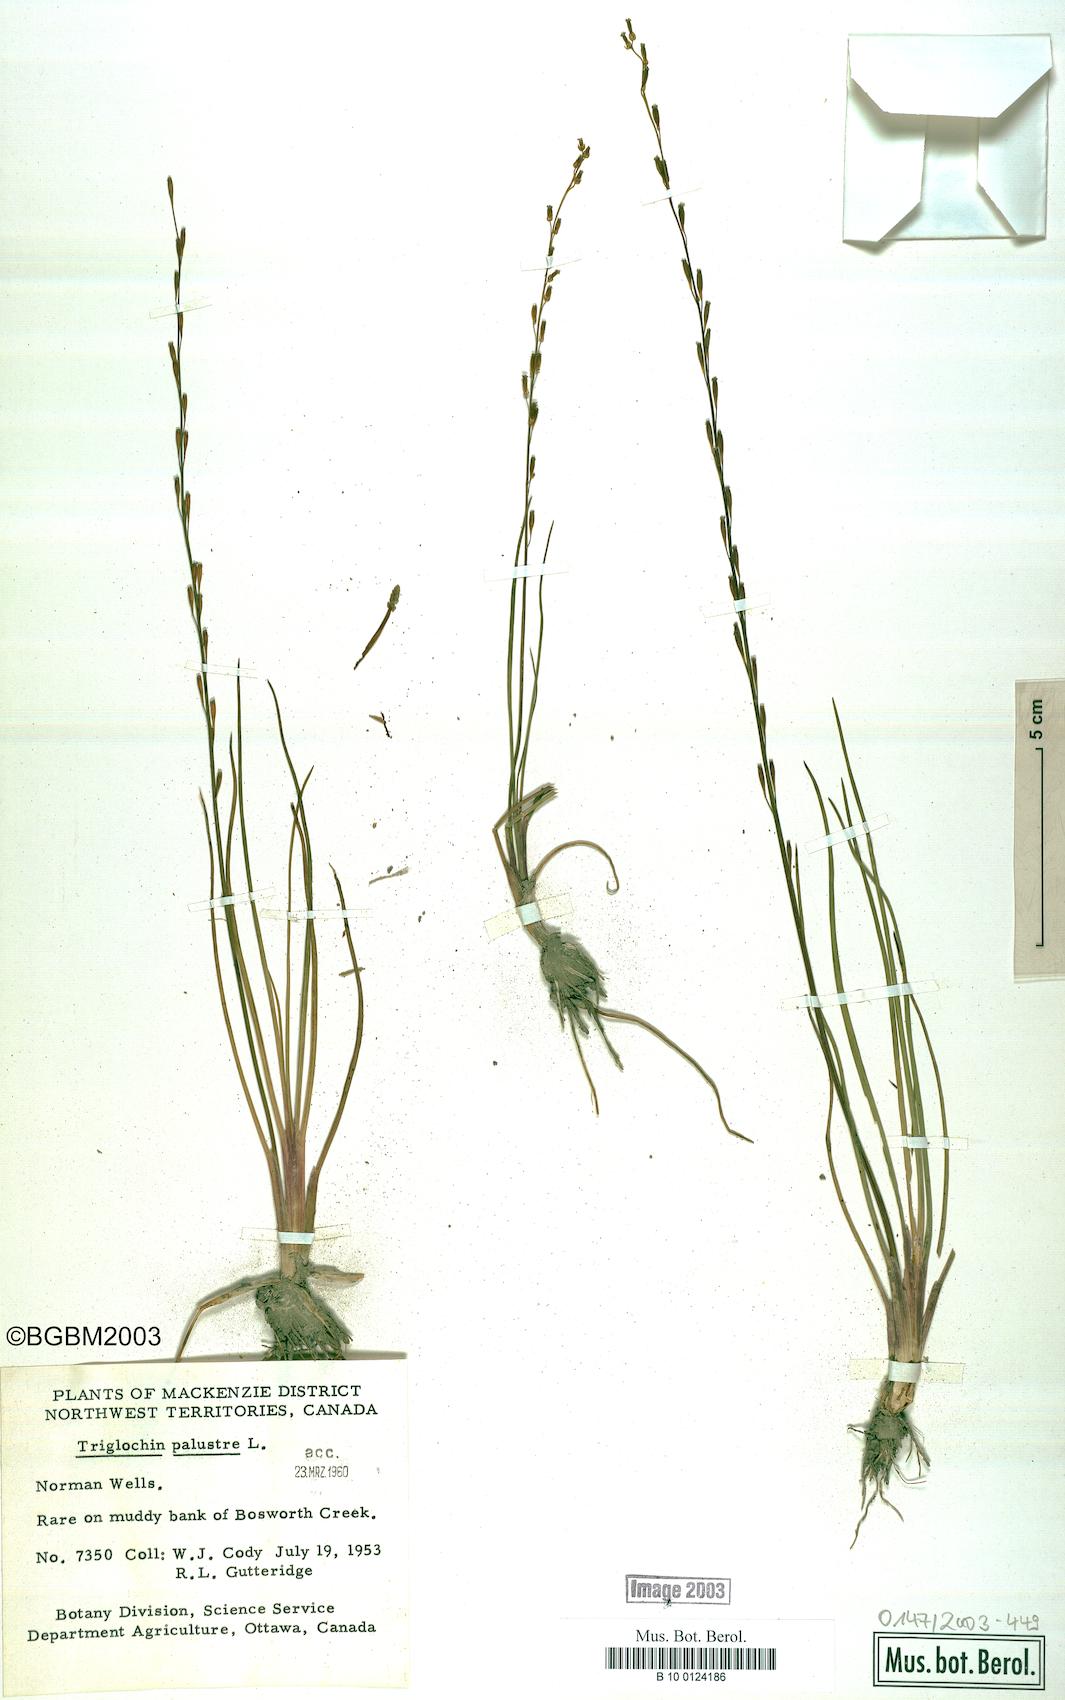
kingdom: Plantae
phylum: Tracheophyta
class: Liliopsida
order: Alismatales
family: Juncaginaceae
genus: Triglochin
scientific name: Triglochin palustris
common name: Marsh arrowgrass
